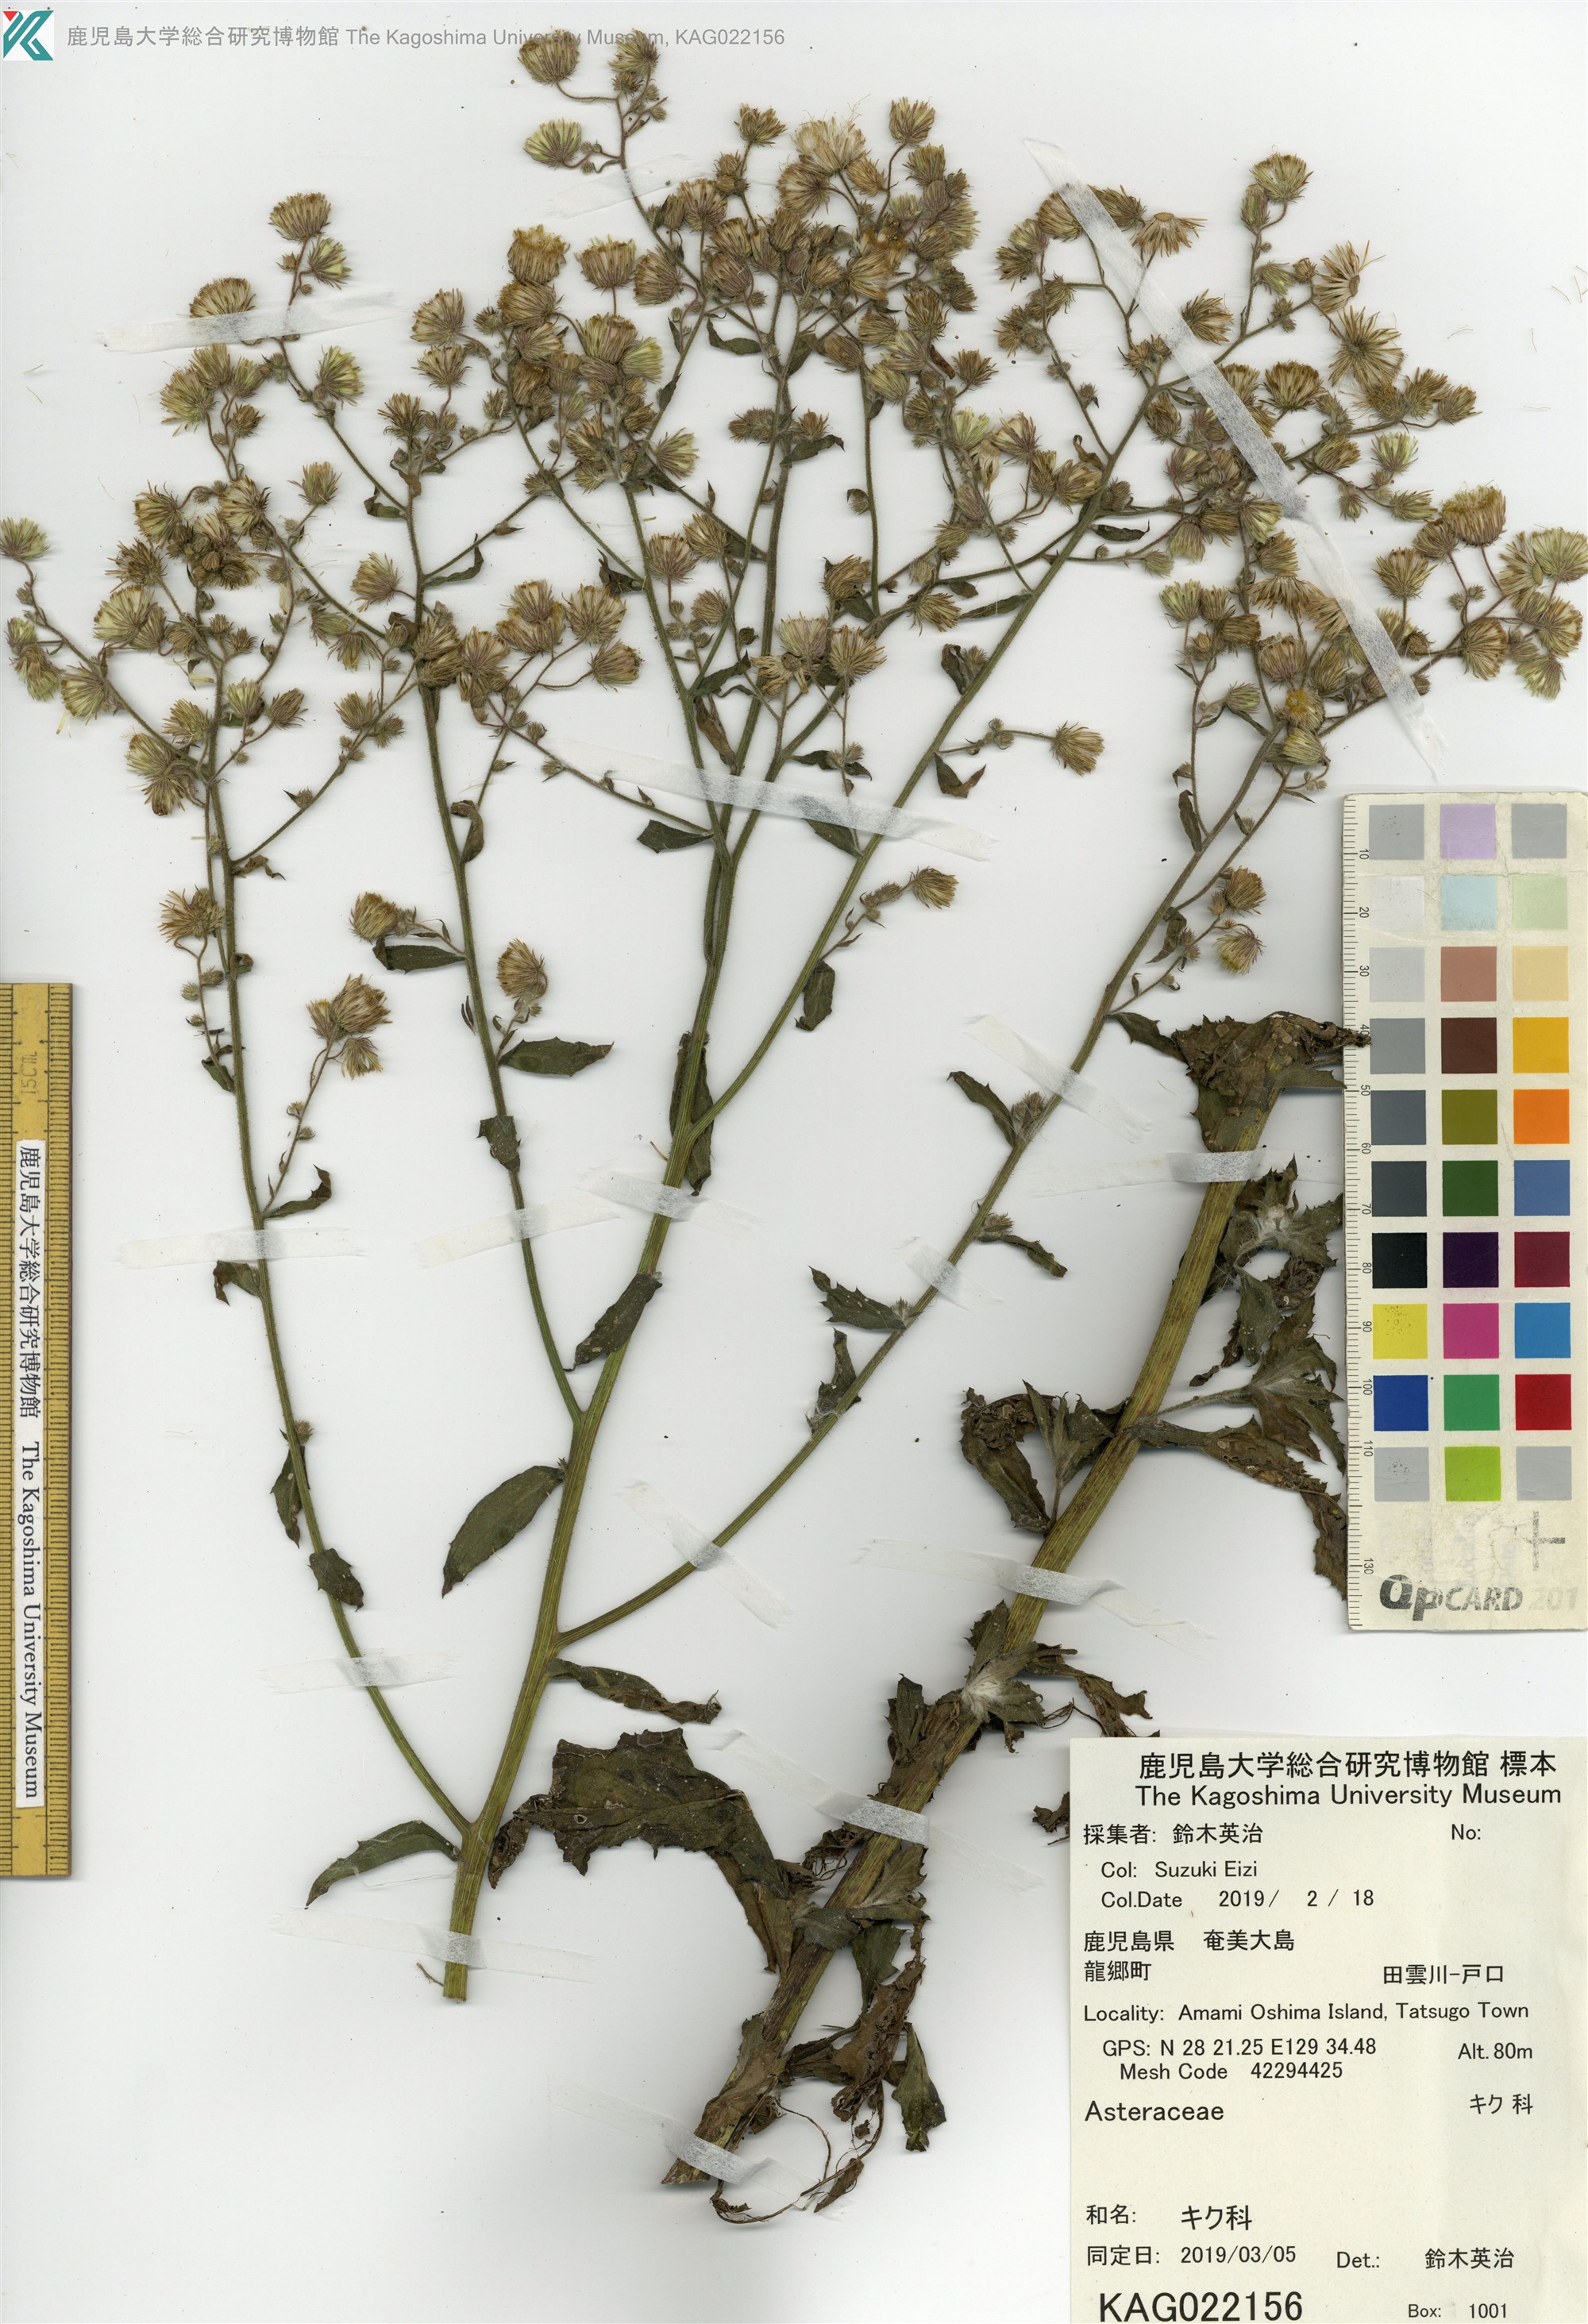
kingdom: Plantae
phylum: Tracheophyta
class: Magnoliopsida
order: Asterales
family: Asteraceae
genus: Blumea
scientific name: Blumea lacera
